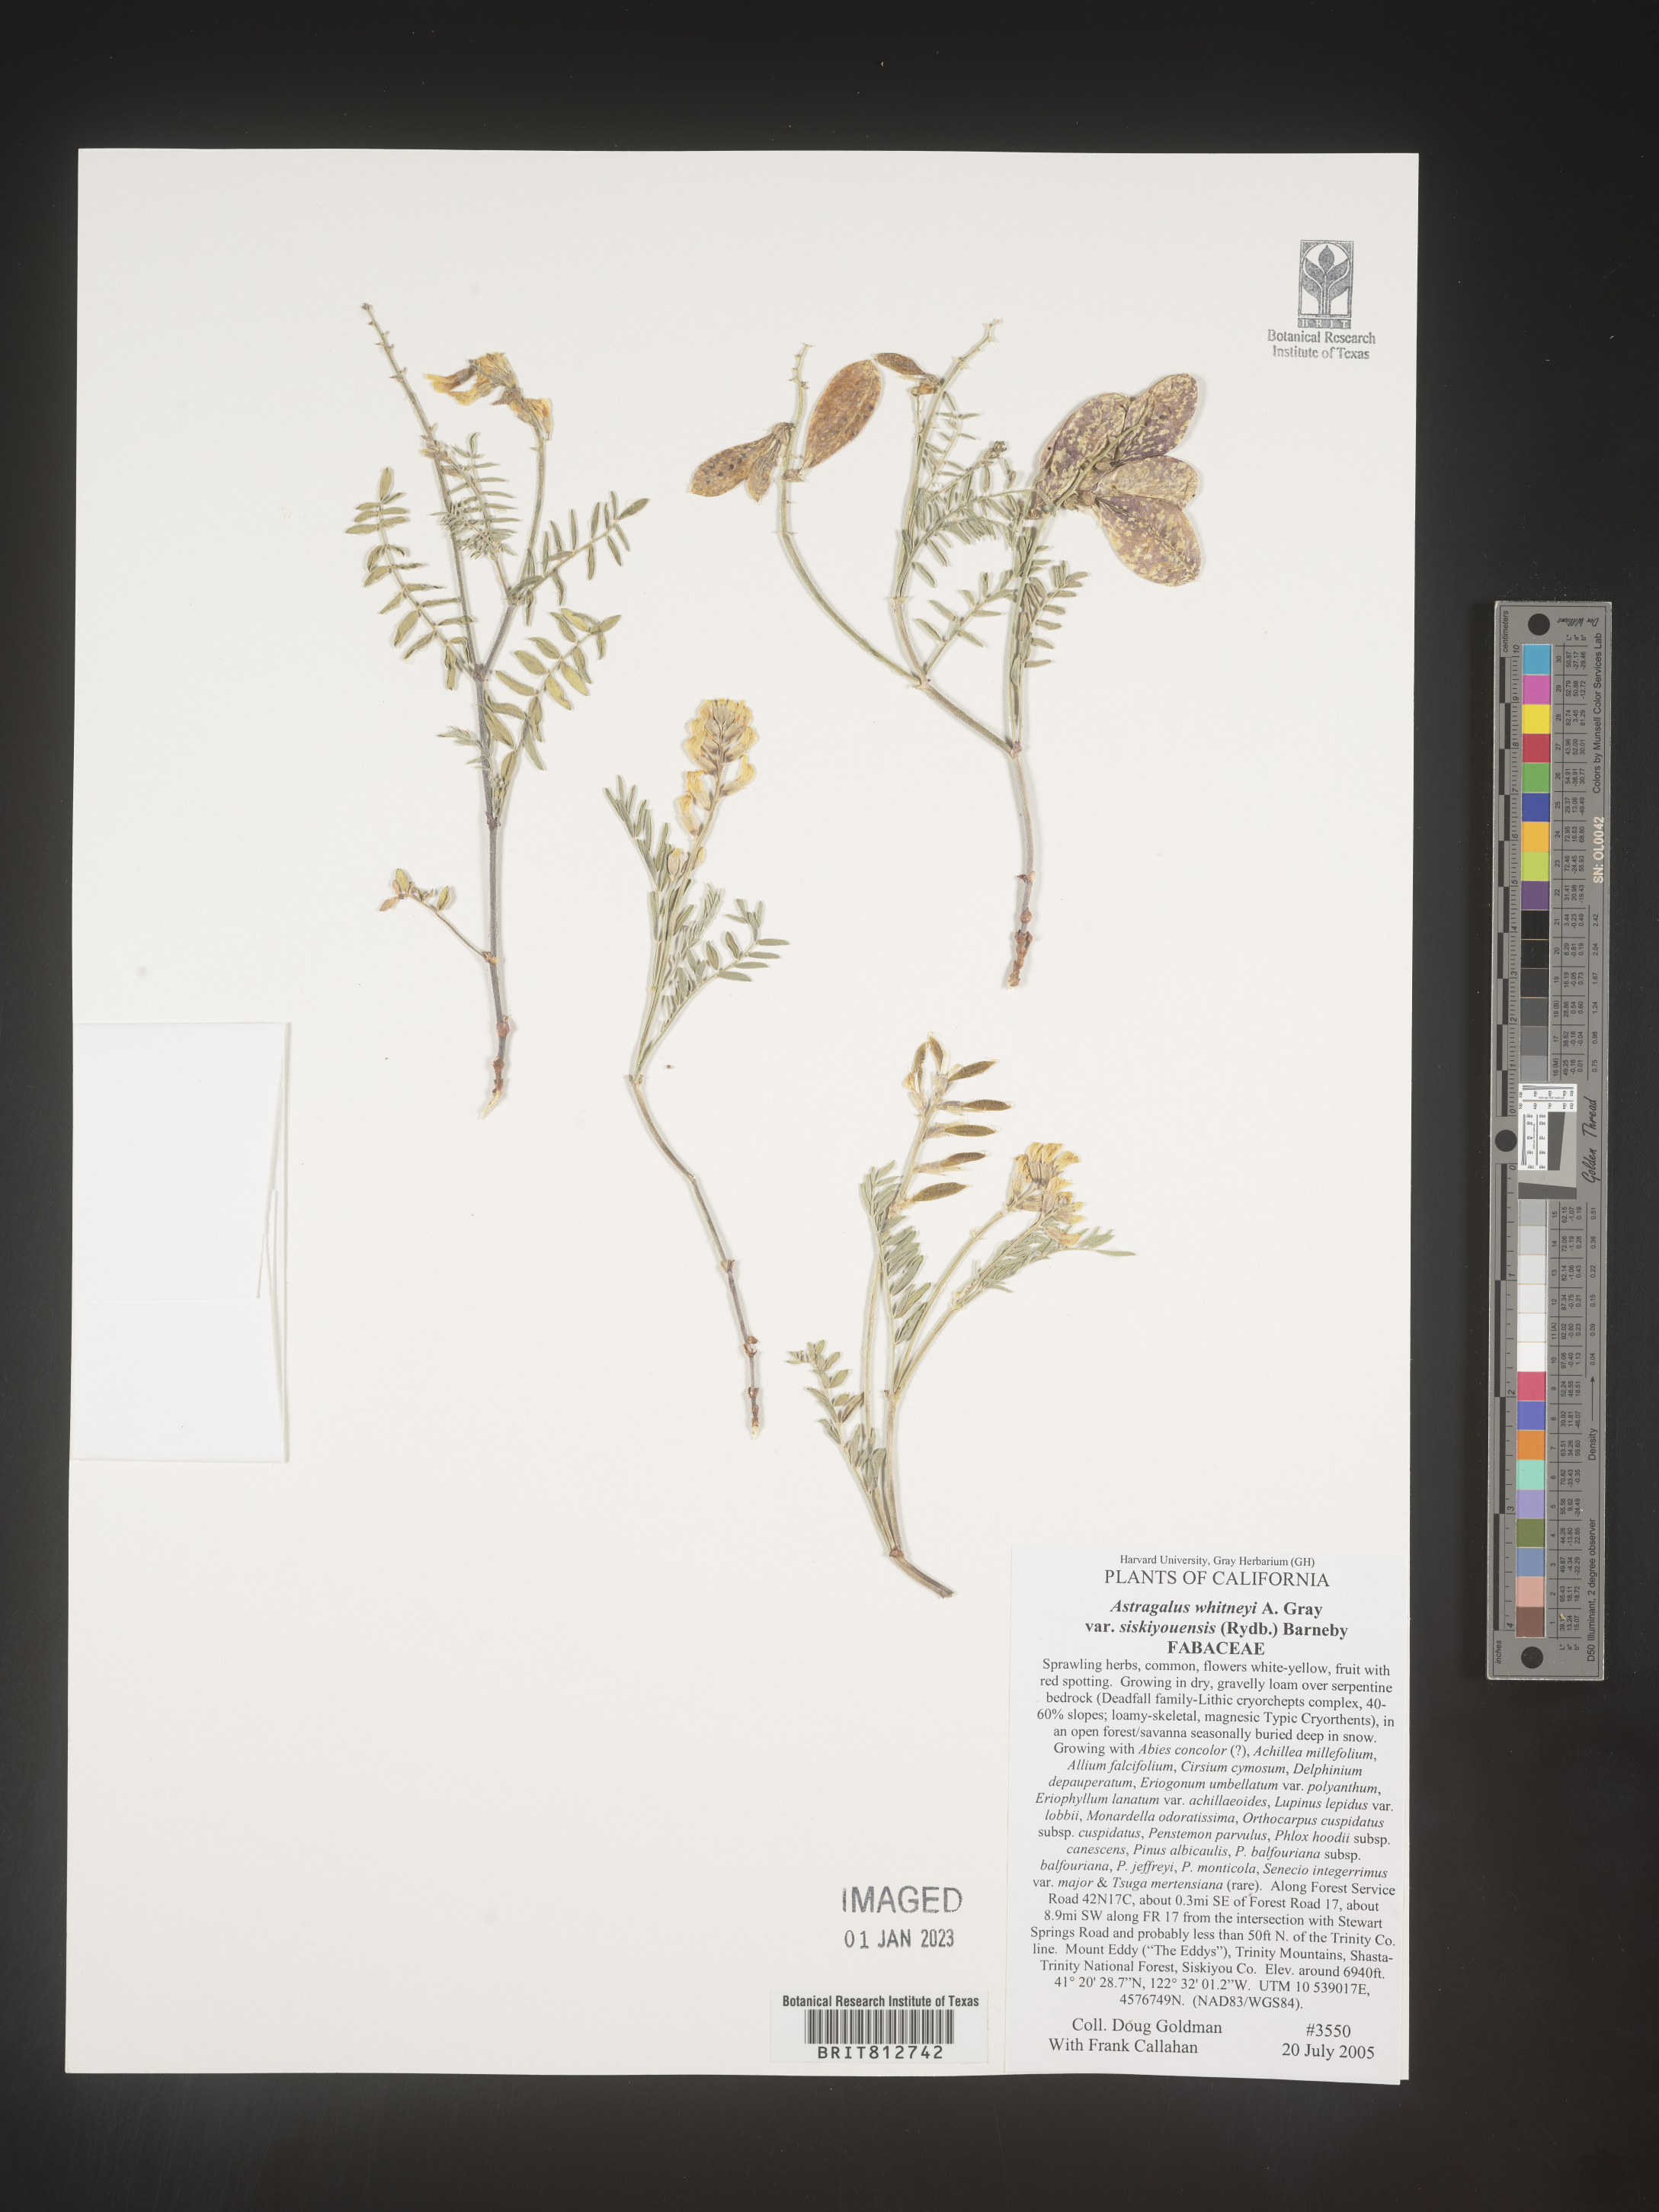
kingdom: Plantae
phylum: Tracheophyta
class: Magnoliopsida
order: Fabales
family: Fabaceae
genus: Astragalus
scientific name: Astragalus
